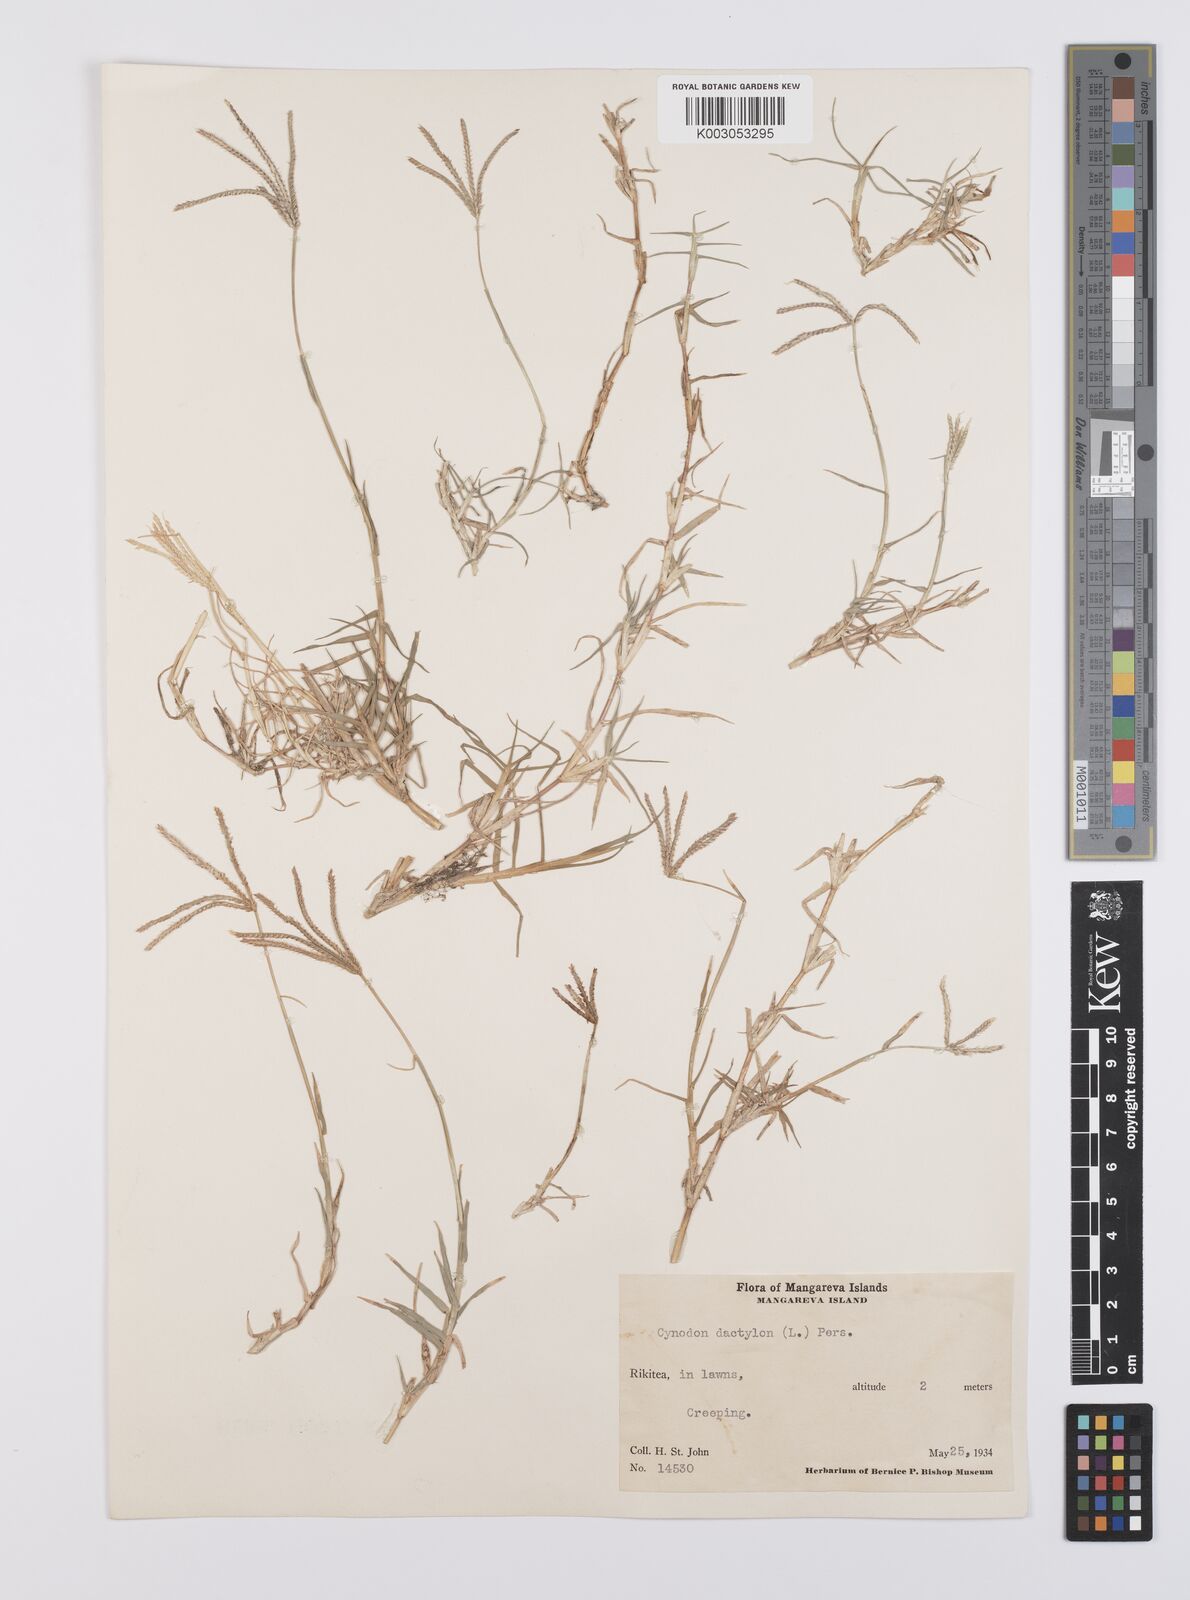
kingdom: Plantae
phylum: Tracheophyta
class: Liliopsida
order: Poales
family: Poaceae
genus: Cynodon
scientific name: Cynodon dactylon
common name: Bermuda grass
